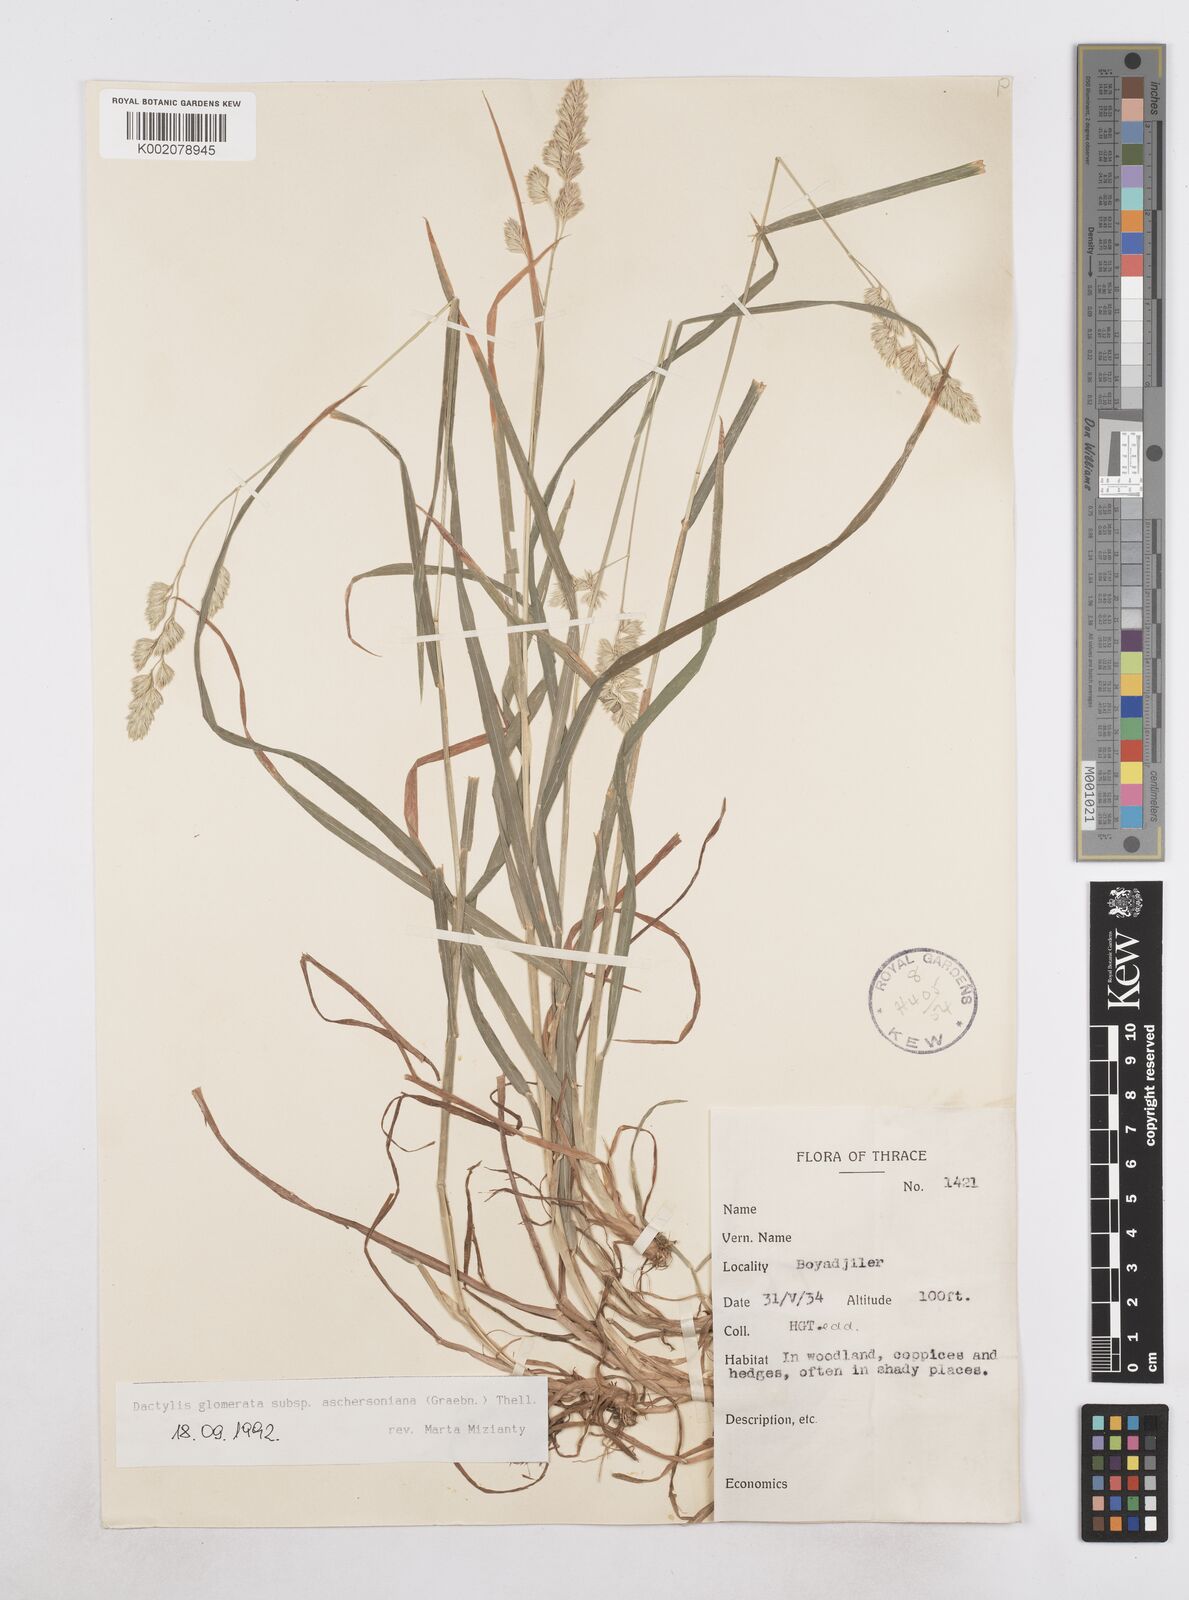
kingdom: Plantae
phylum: Tracheophyta
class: Liliopsida
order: Poales
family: Poaceae
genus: Dactylis
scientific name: Dactylis glomerata
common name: Orchardgrass
